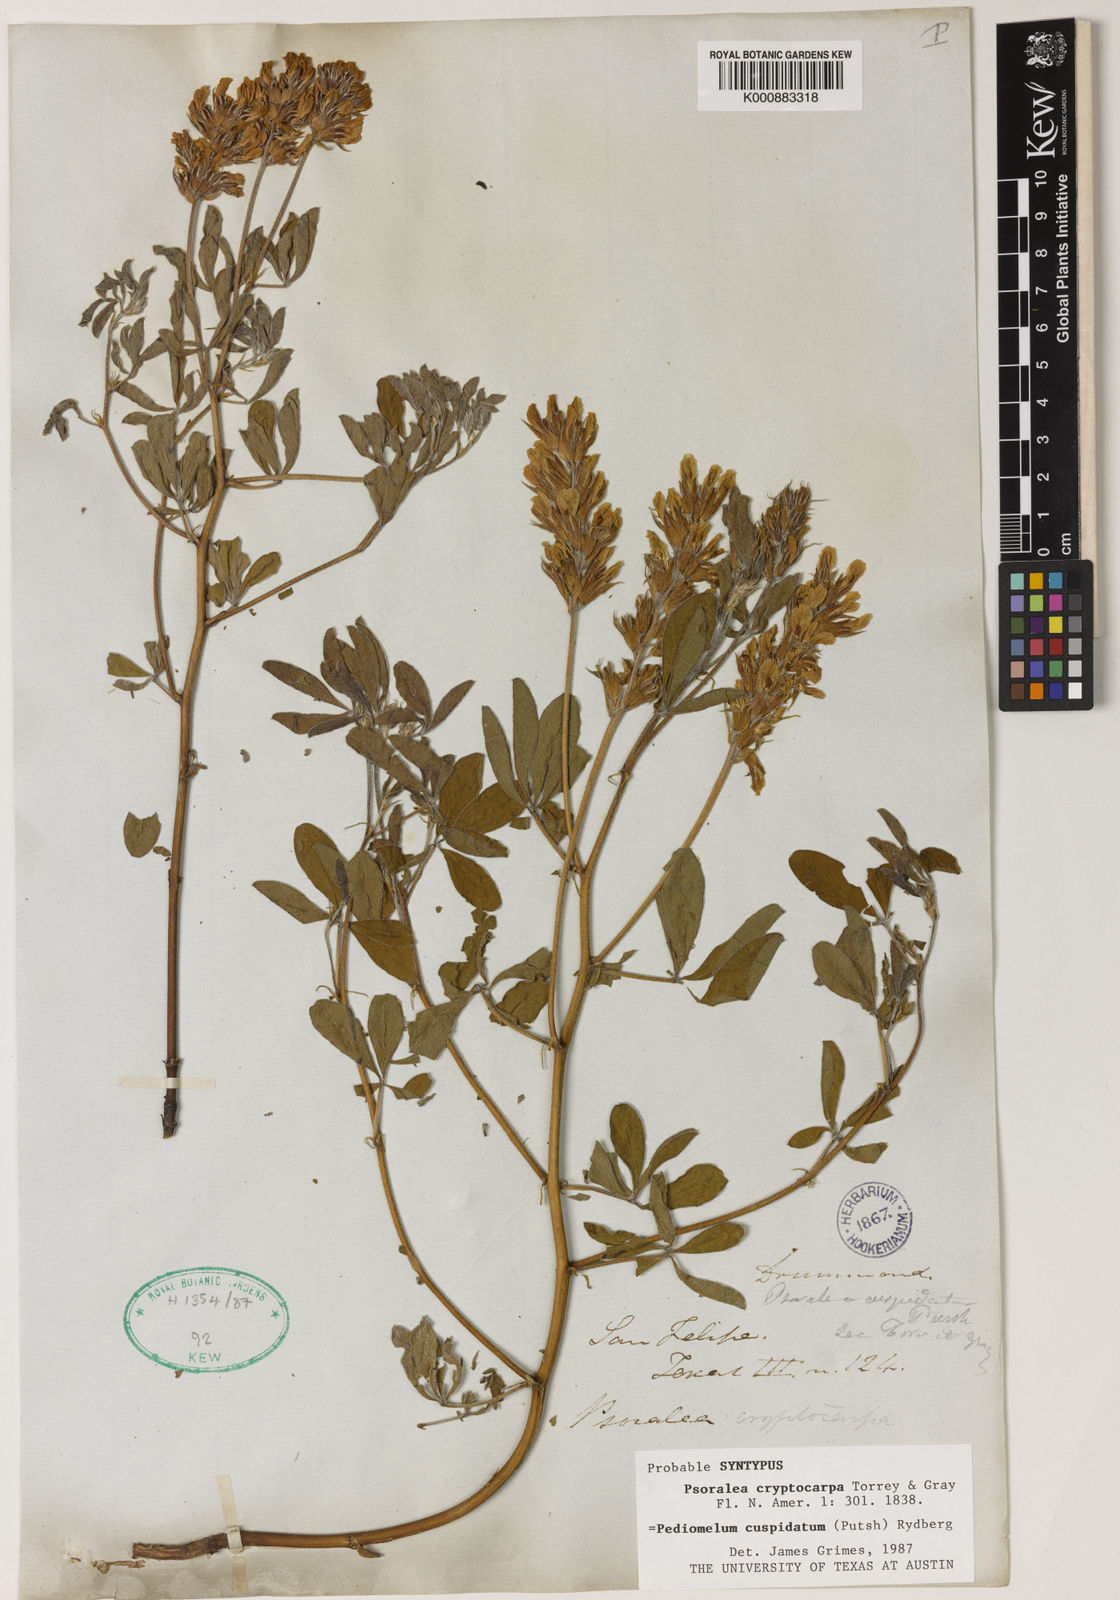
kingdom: Plantae
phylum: Tracheophyta
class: Magnoliopsida
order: Fabales
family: Fabaceae
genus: Pediomelum
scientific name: Pediomelum cuspidatum
